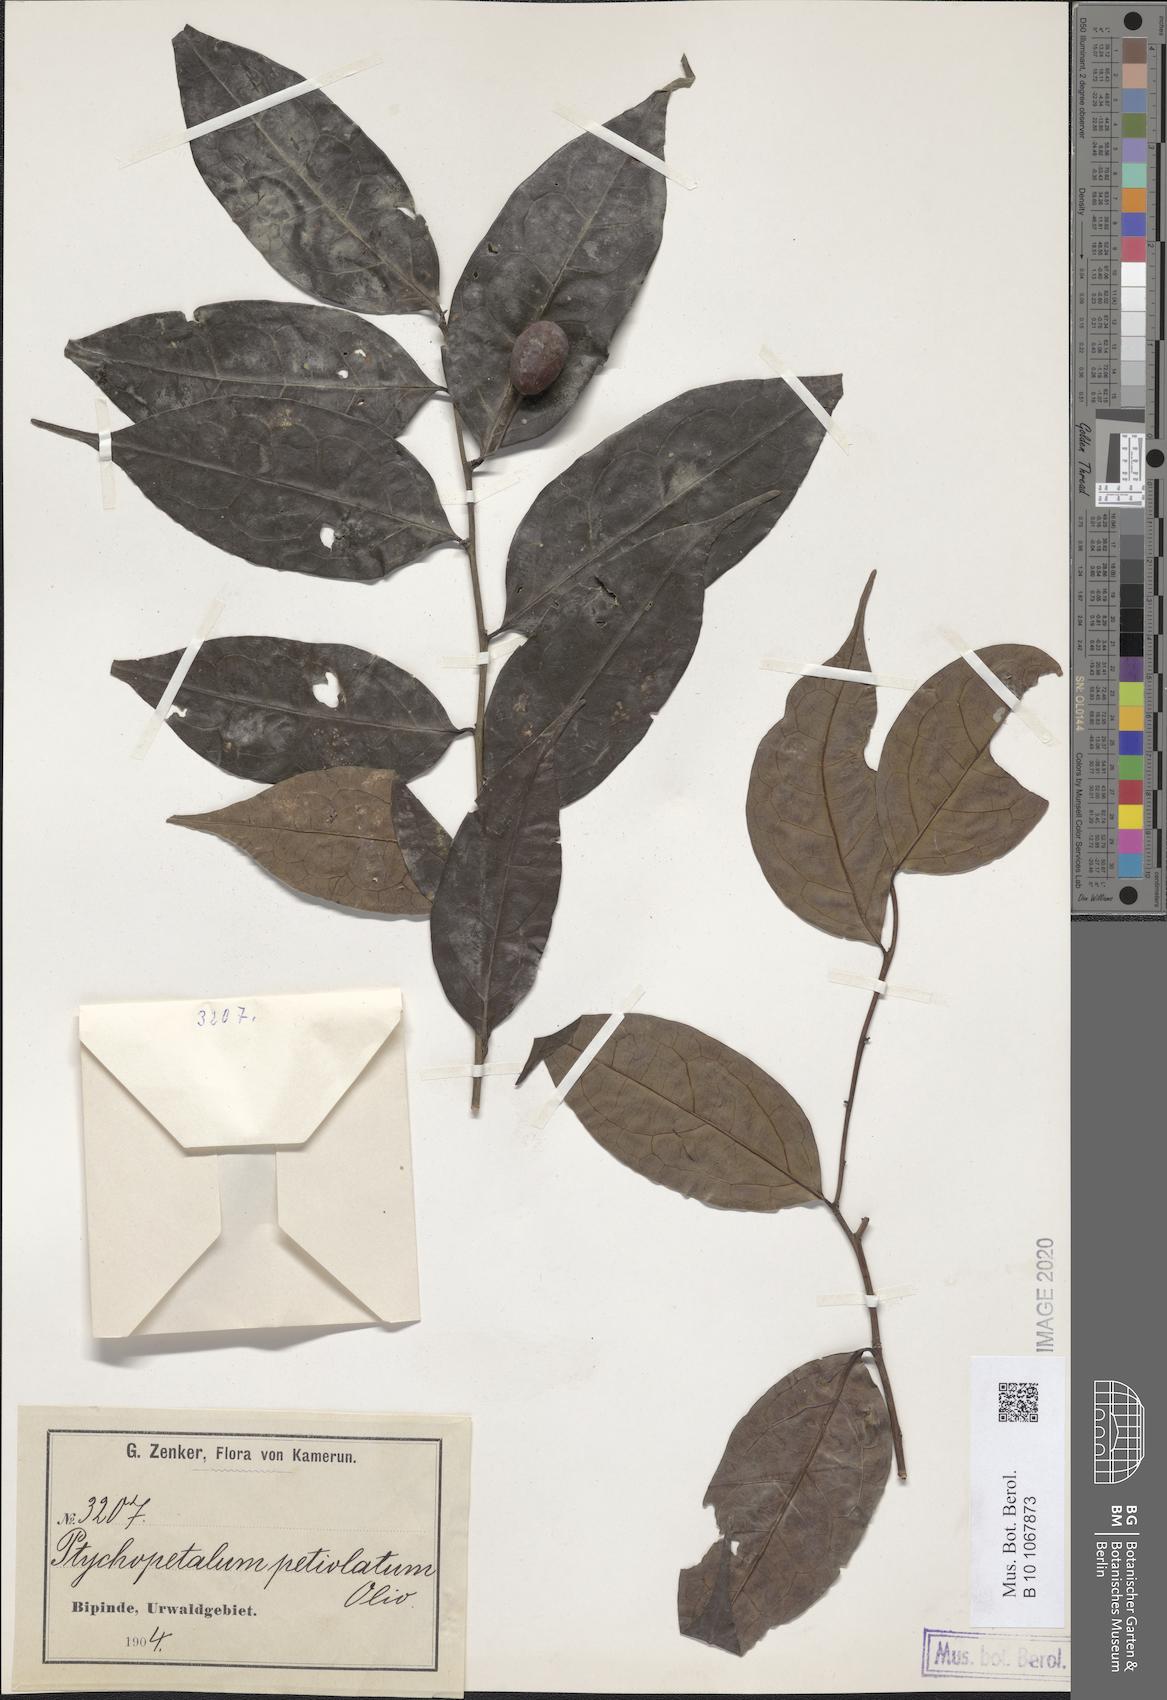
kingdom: Plantae
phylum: Tracheophyta
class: Magnoliopsida
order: Santalales
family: Olacaceae
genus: Ptychopetalum
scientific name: Ptychopetalum petiolatum
